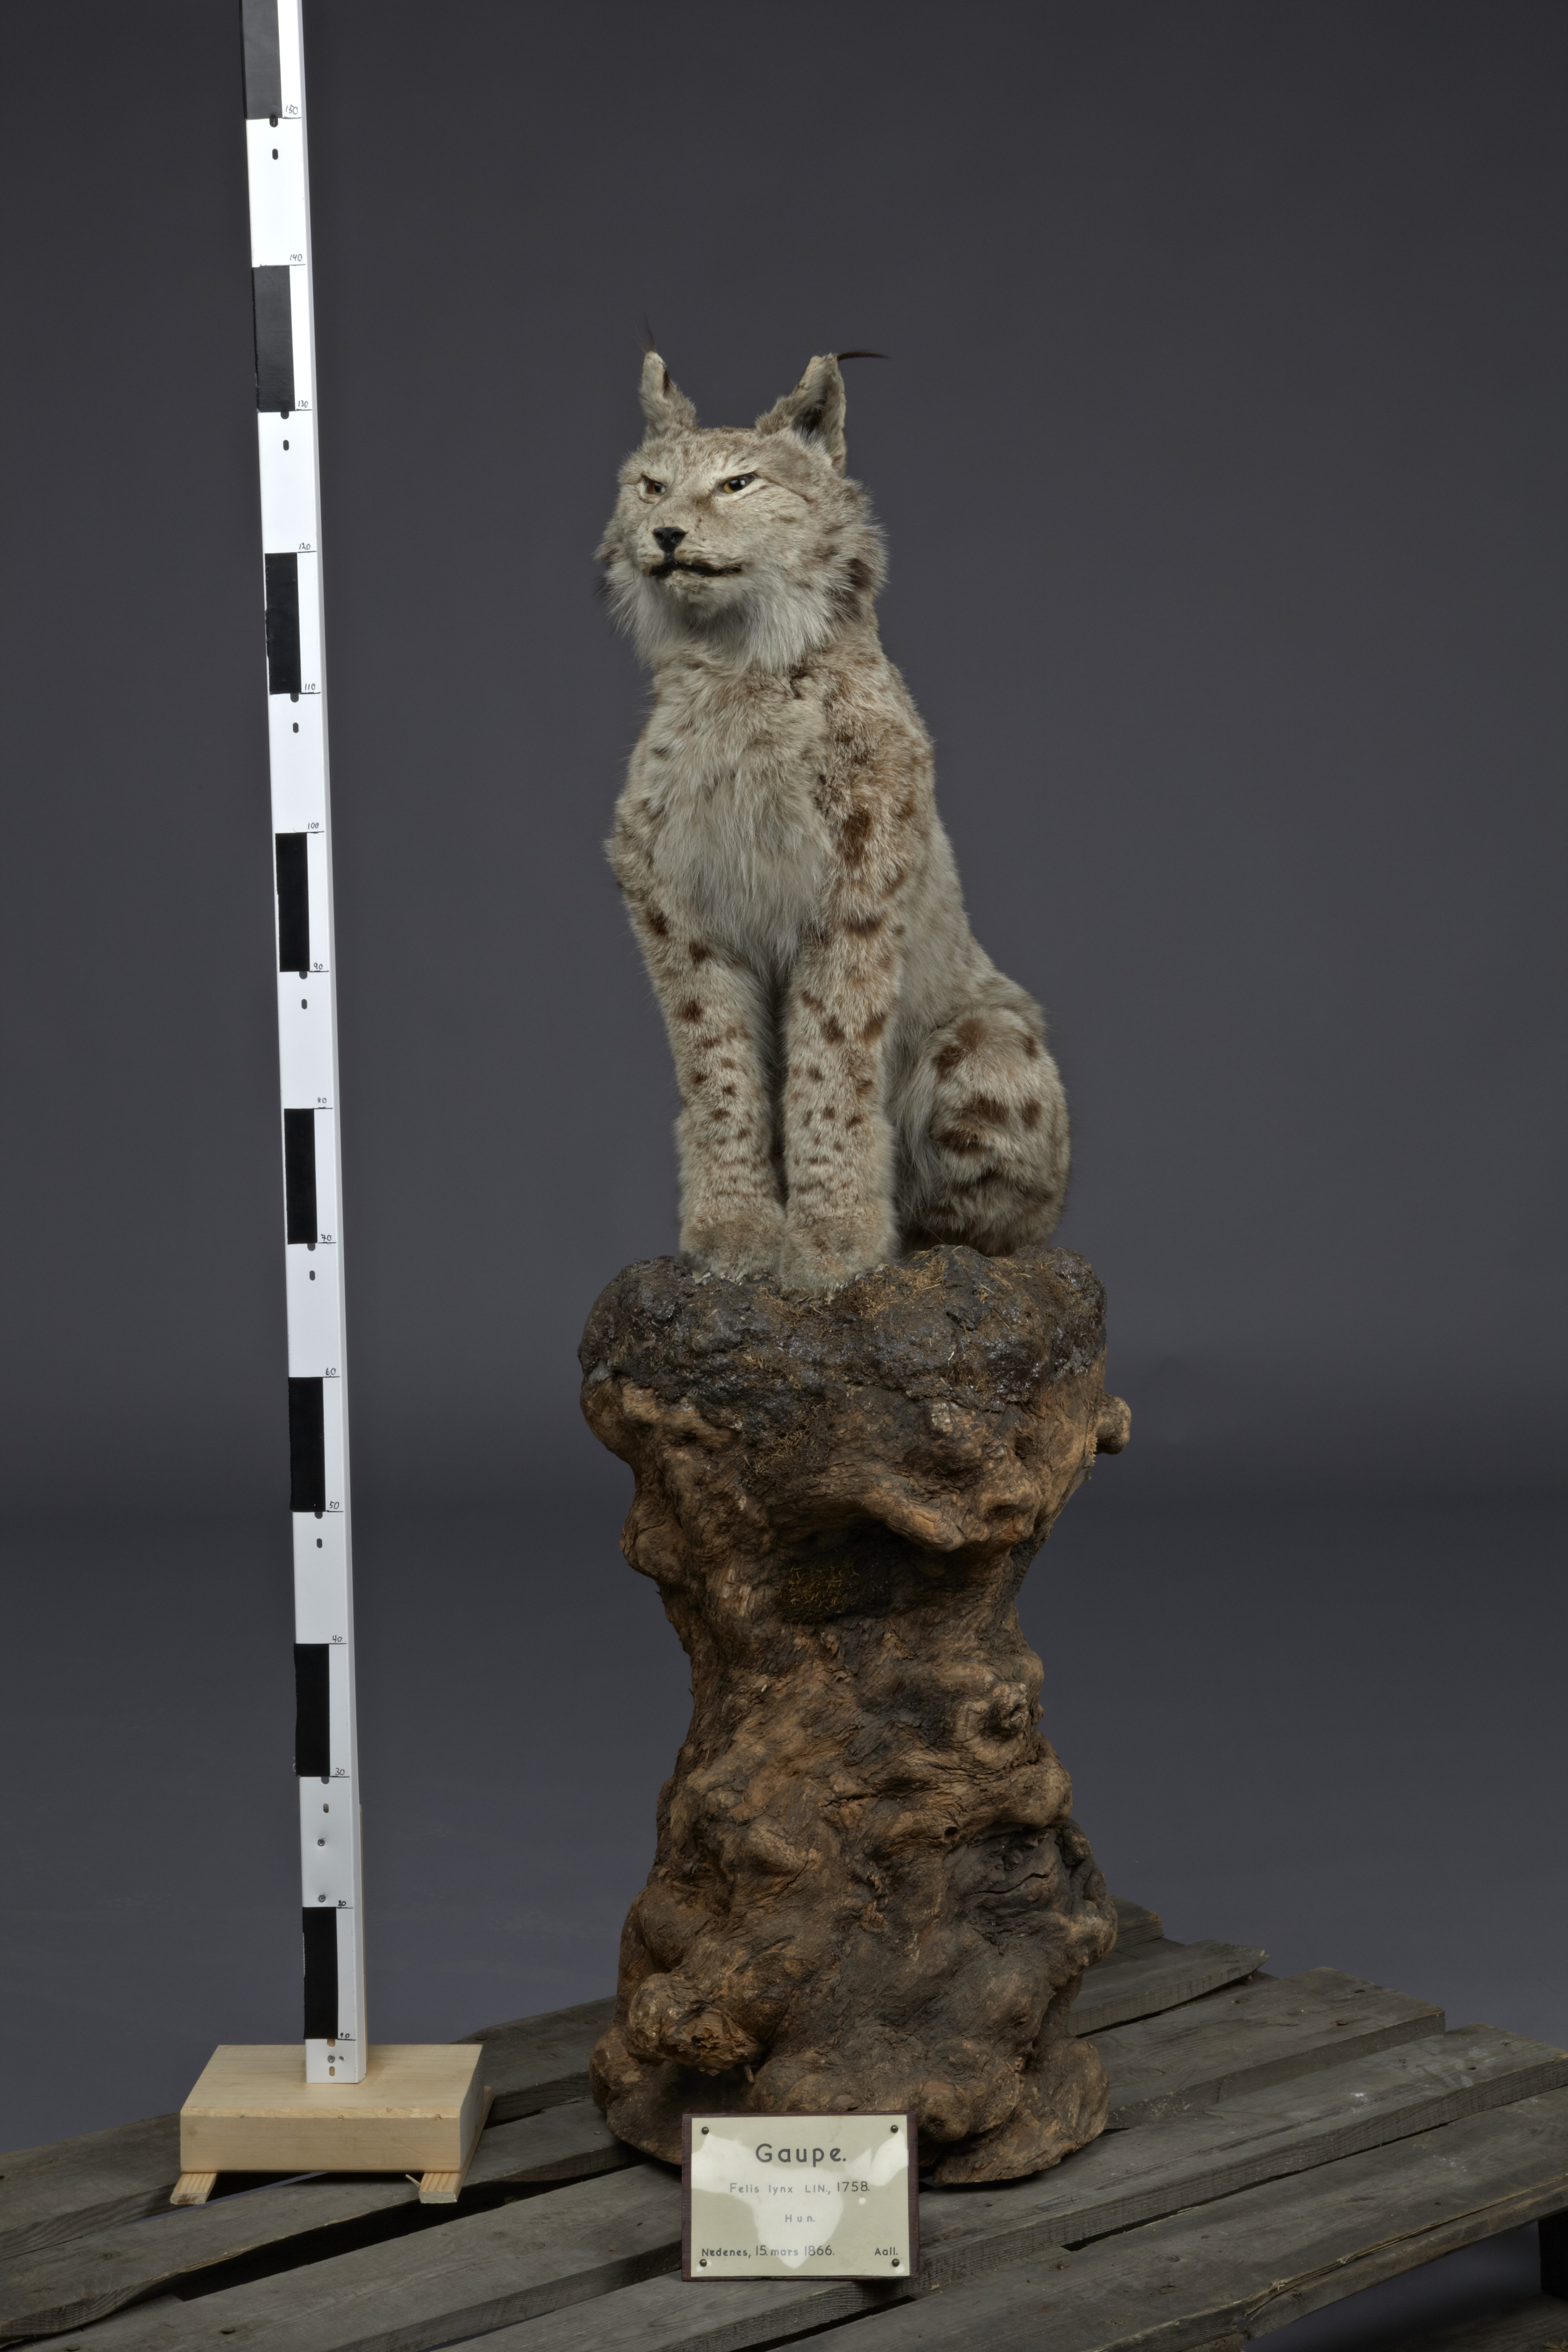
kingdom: Animalia
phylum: Chordata
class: Mammalia
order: Carnivora
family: Felidae
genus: Lynx
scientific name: Lynx lynx
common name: Eurasian lynx
